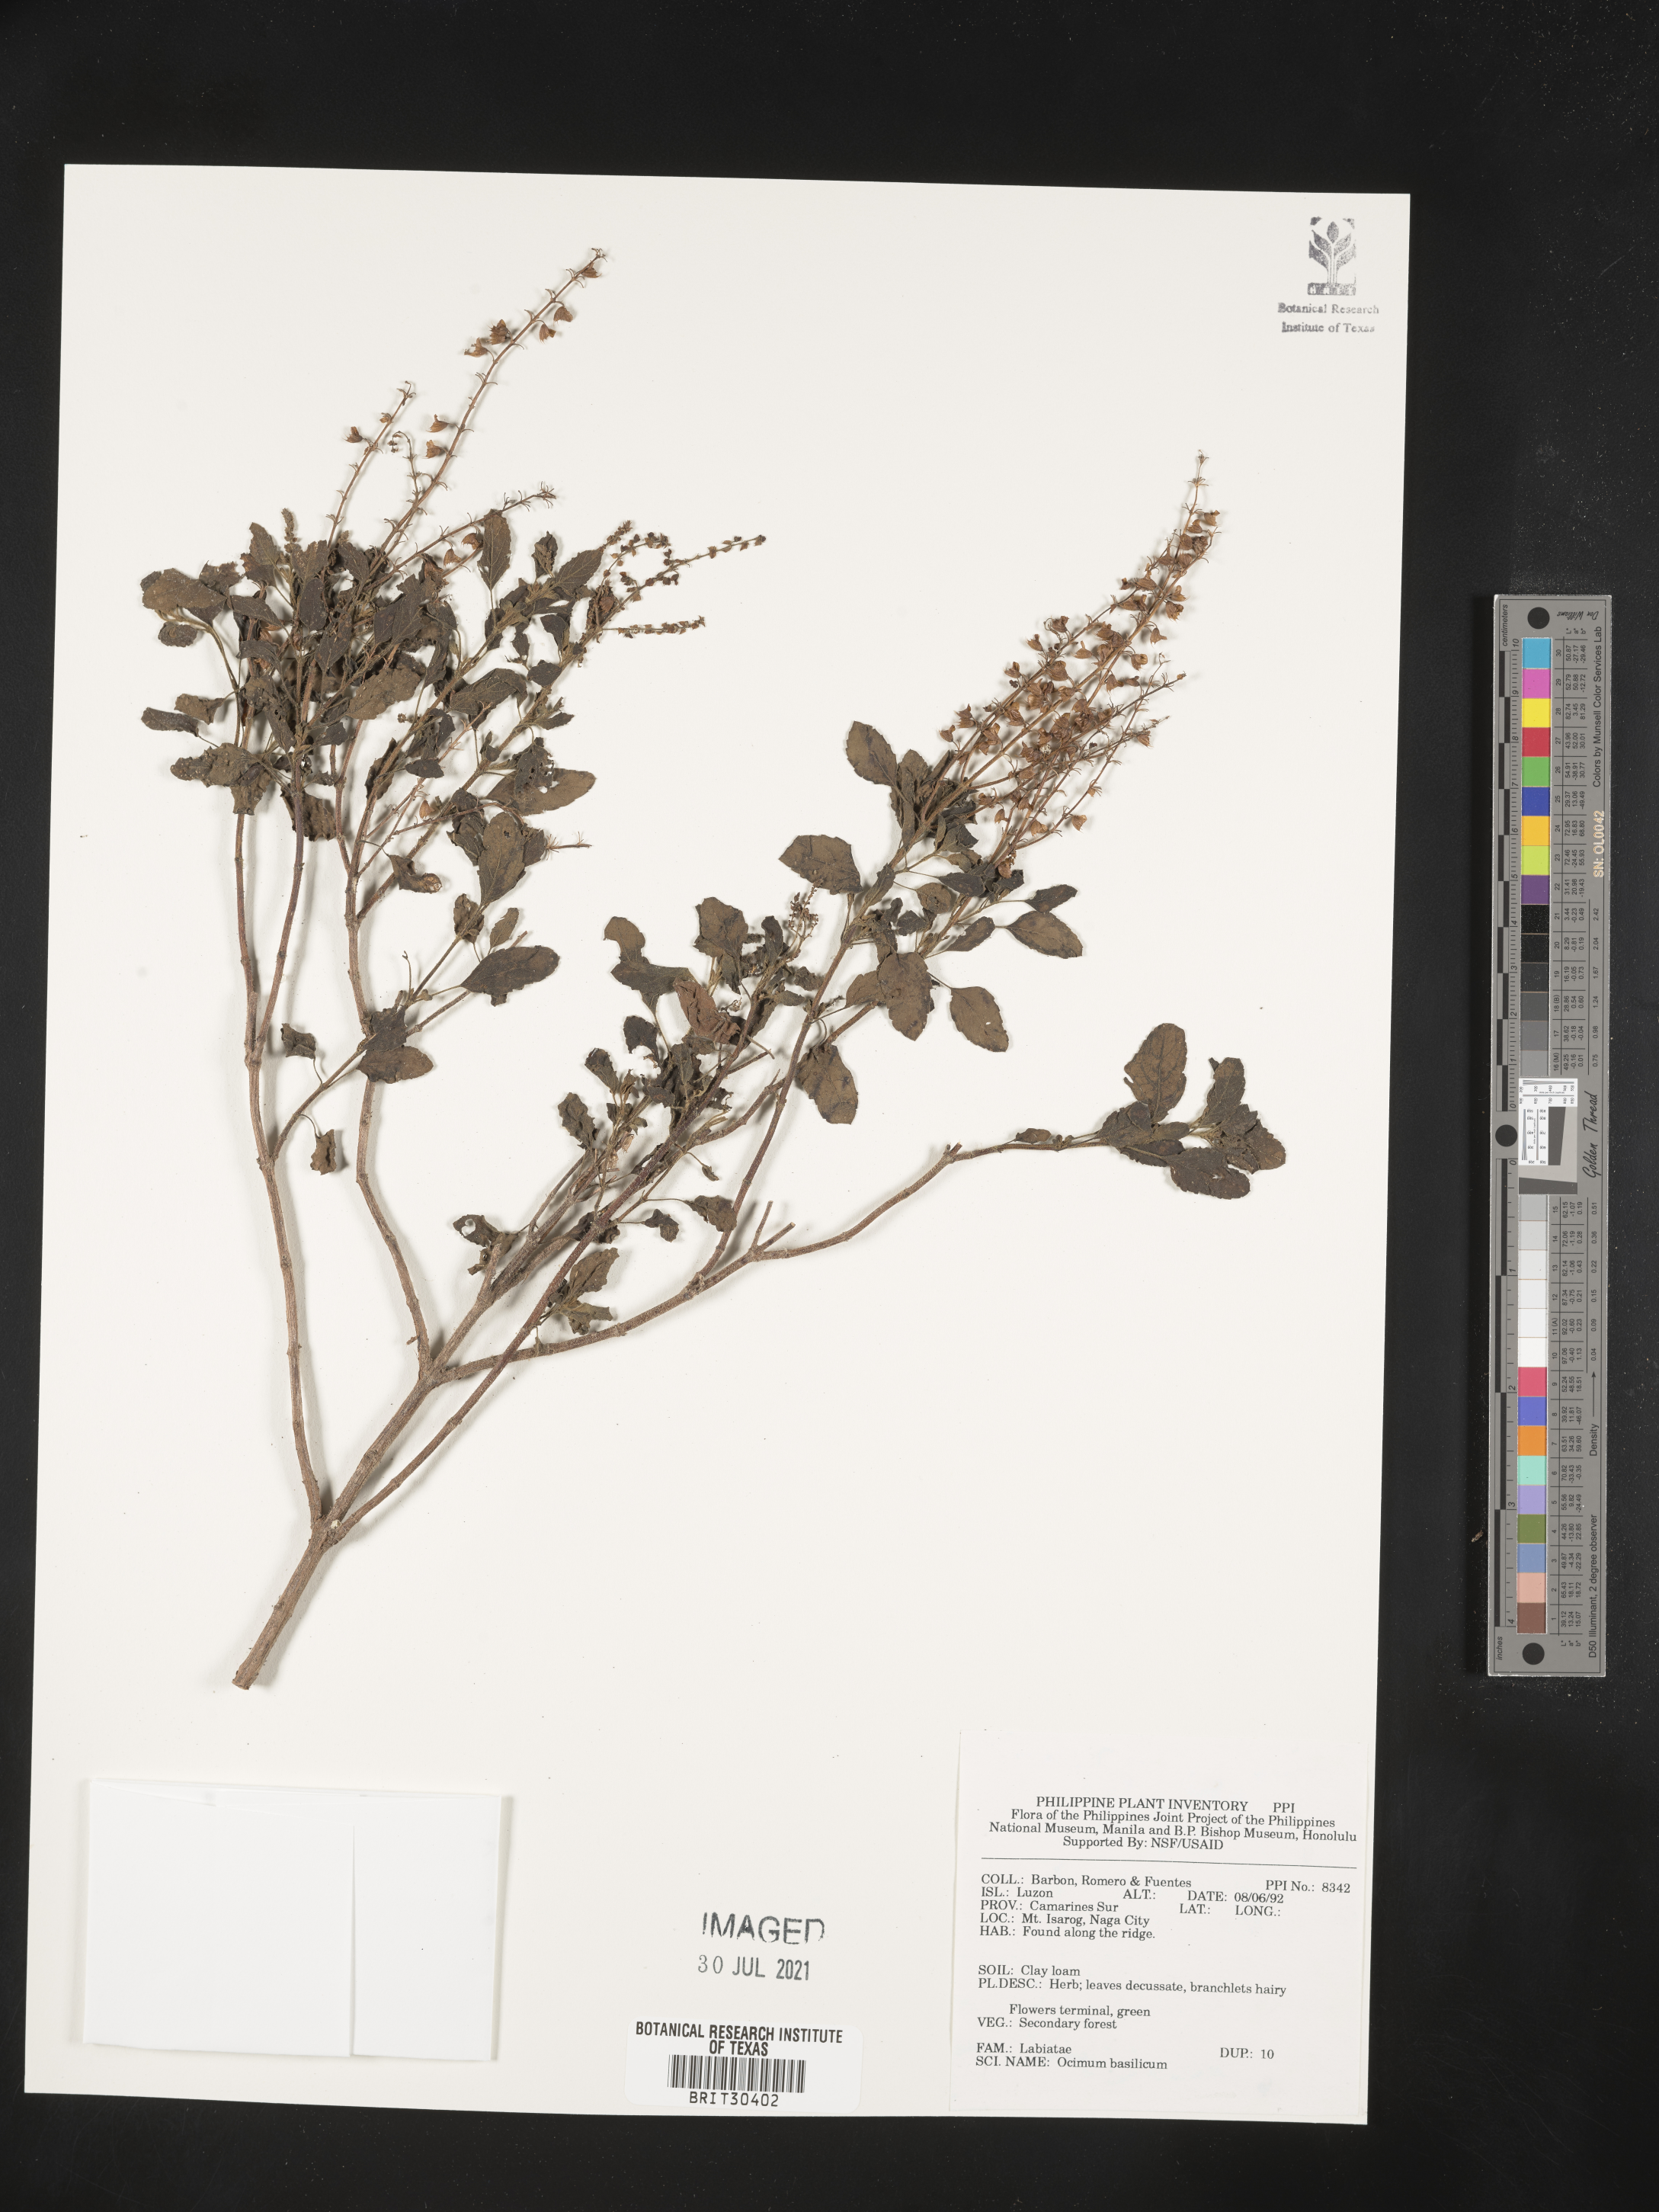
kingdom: Plantae
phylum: Tracheophyta
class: Magnoliopsida
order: Lamiales
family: Lamiaceae
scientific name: Lamiaceae
